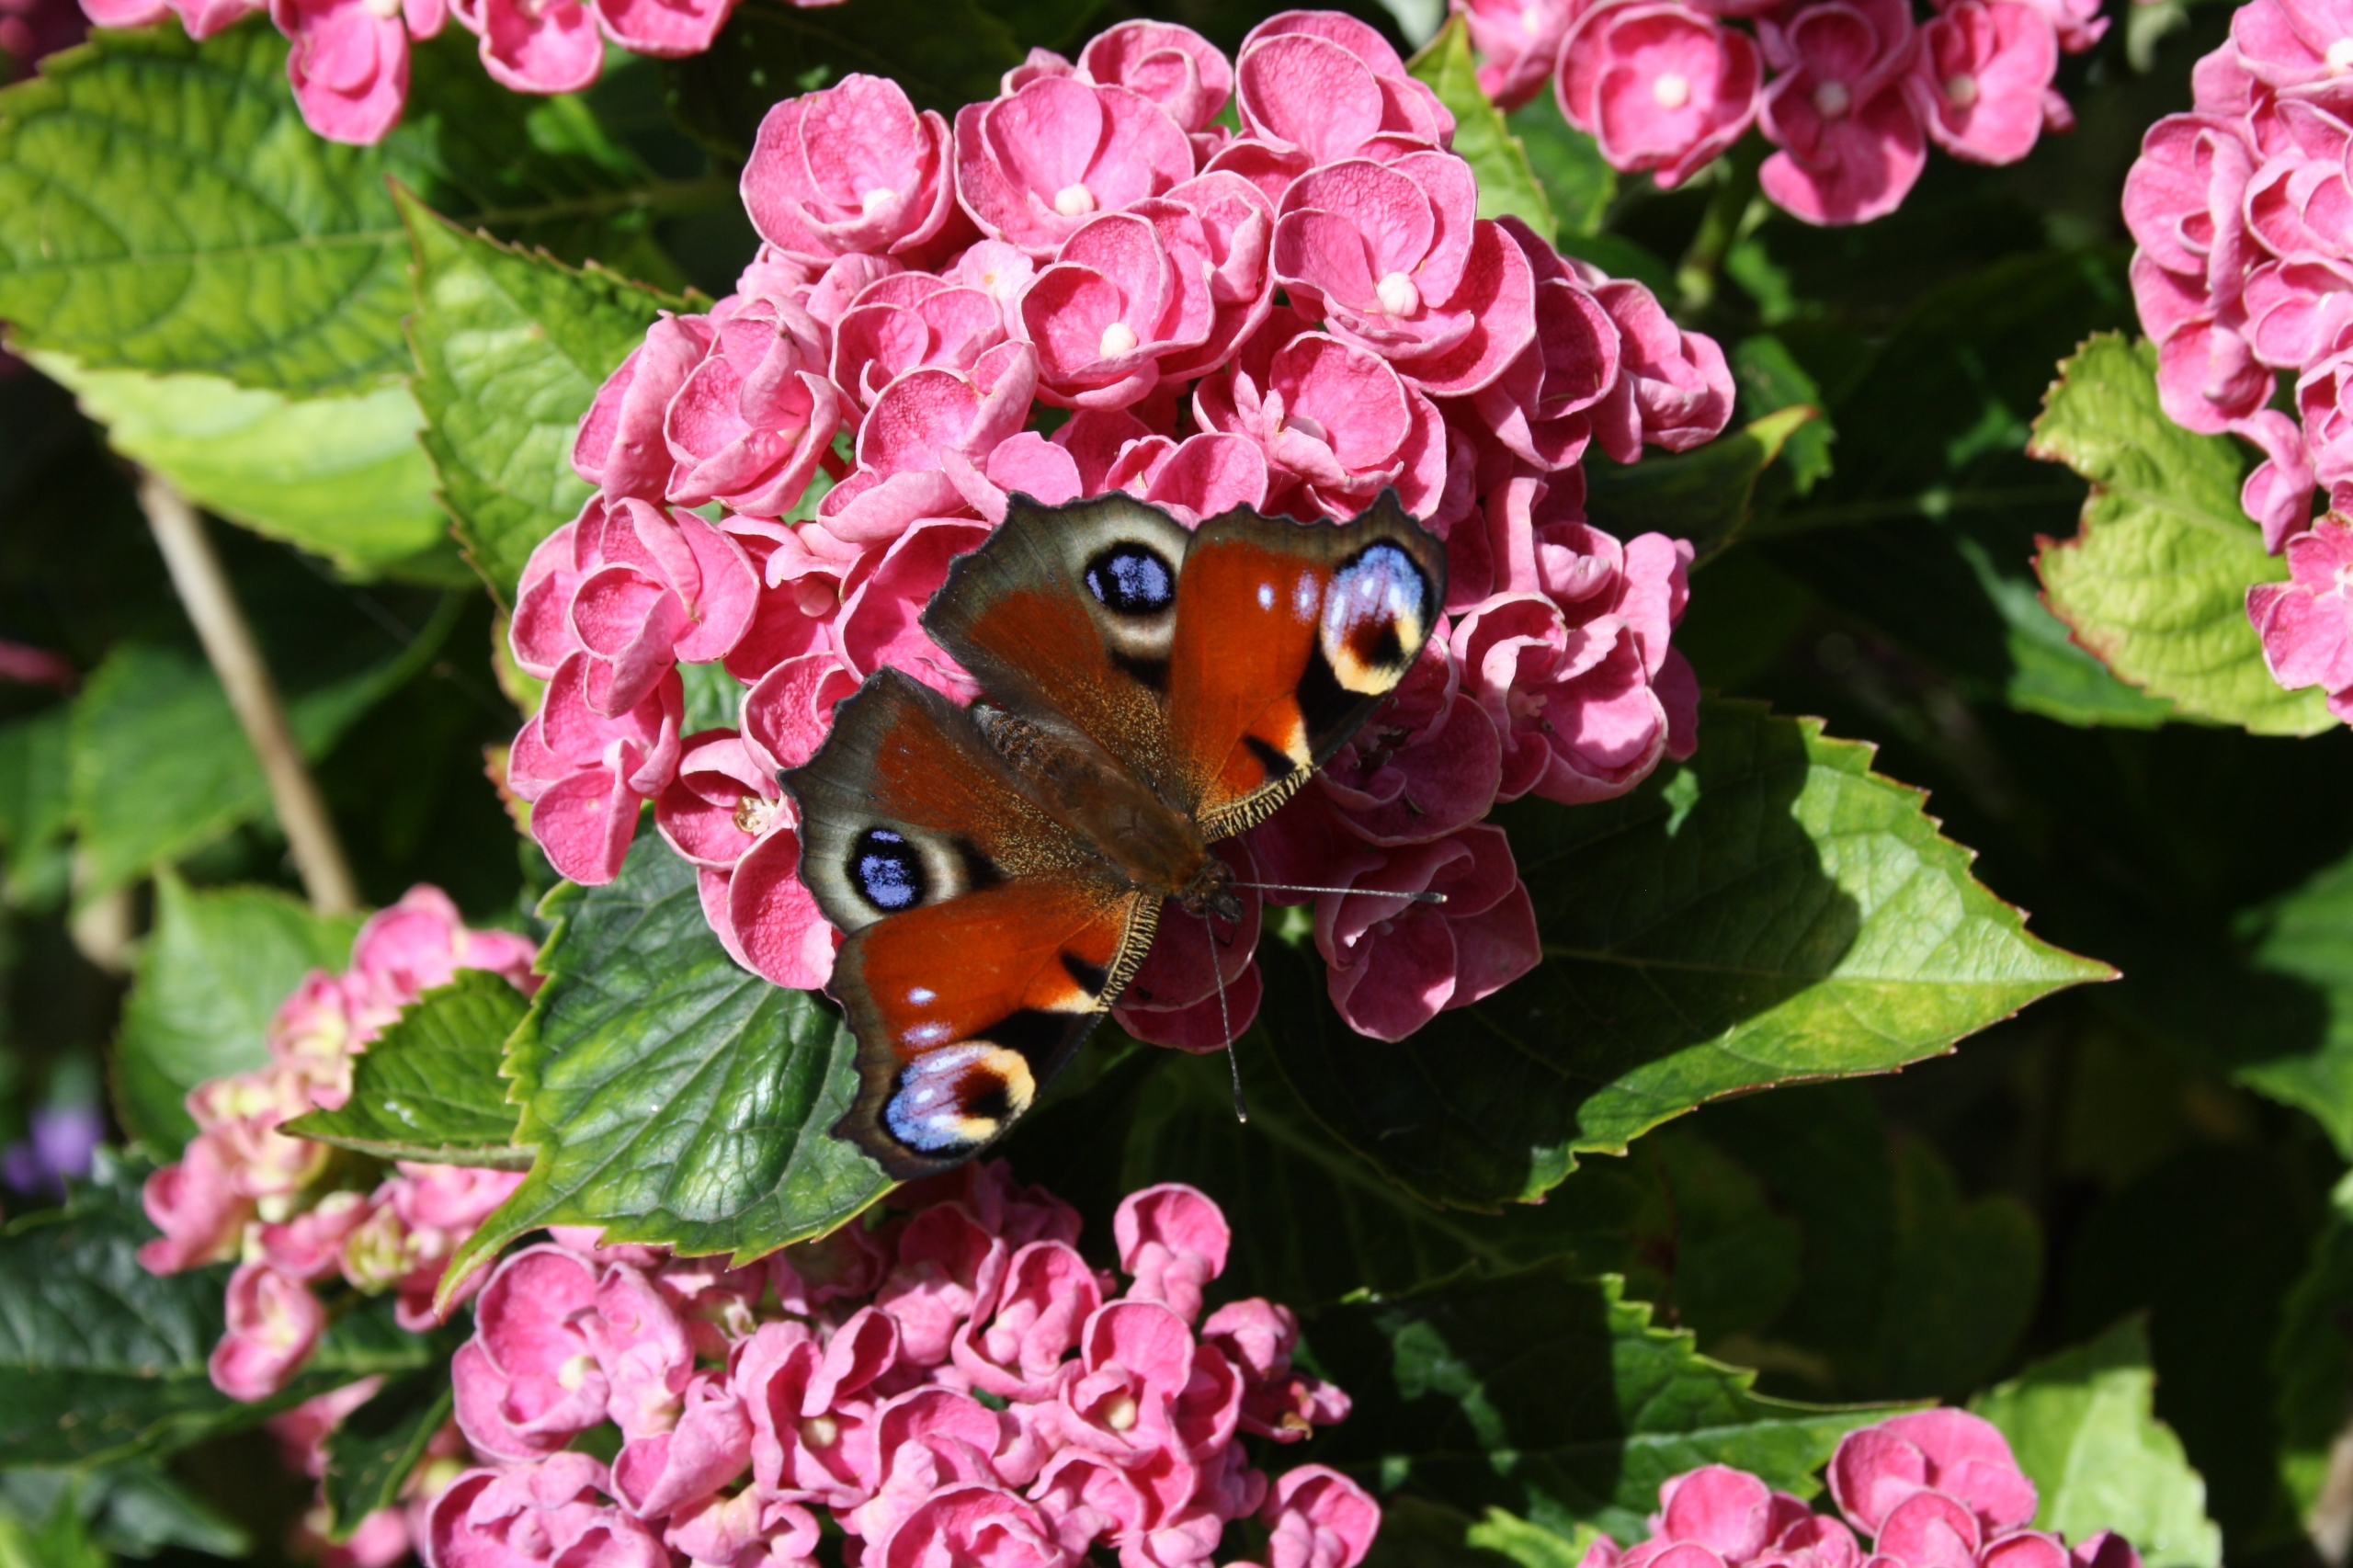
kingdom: Animalia
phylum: Arthropoda
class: Insecta
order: Lepidoptera
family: Nymphalidae
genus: Aglais
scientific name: Aglais io
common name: Dagpåfugleøje
